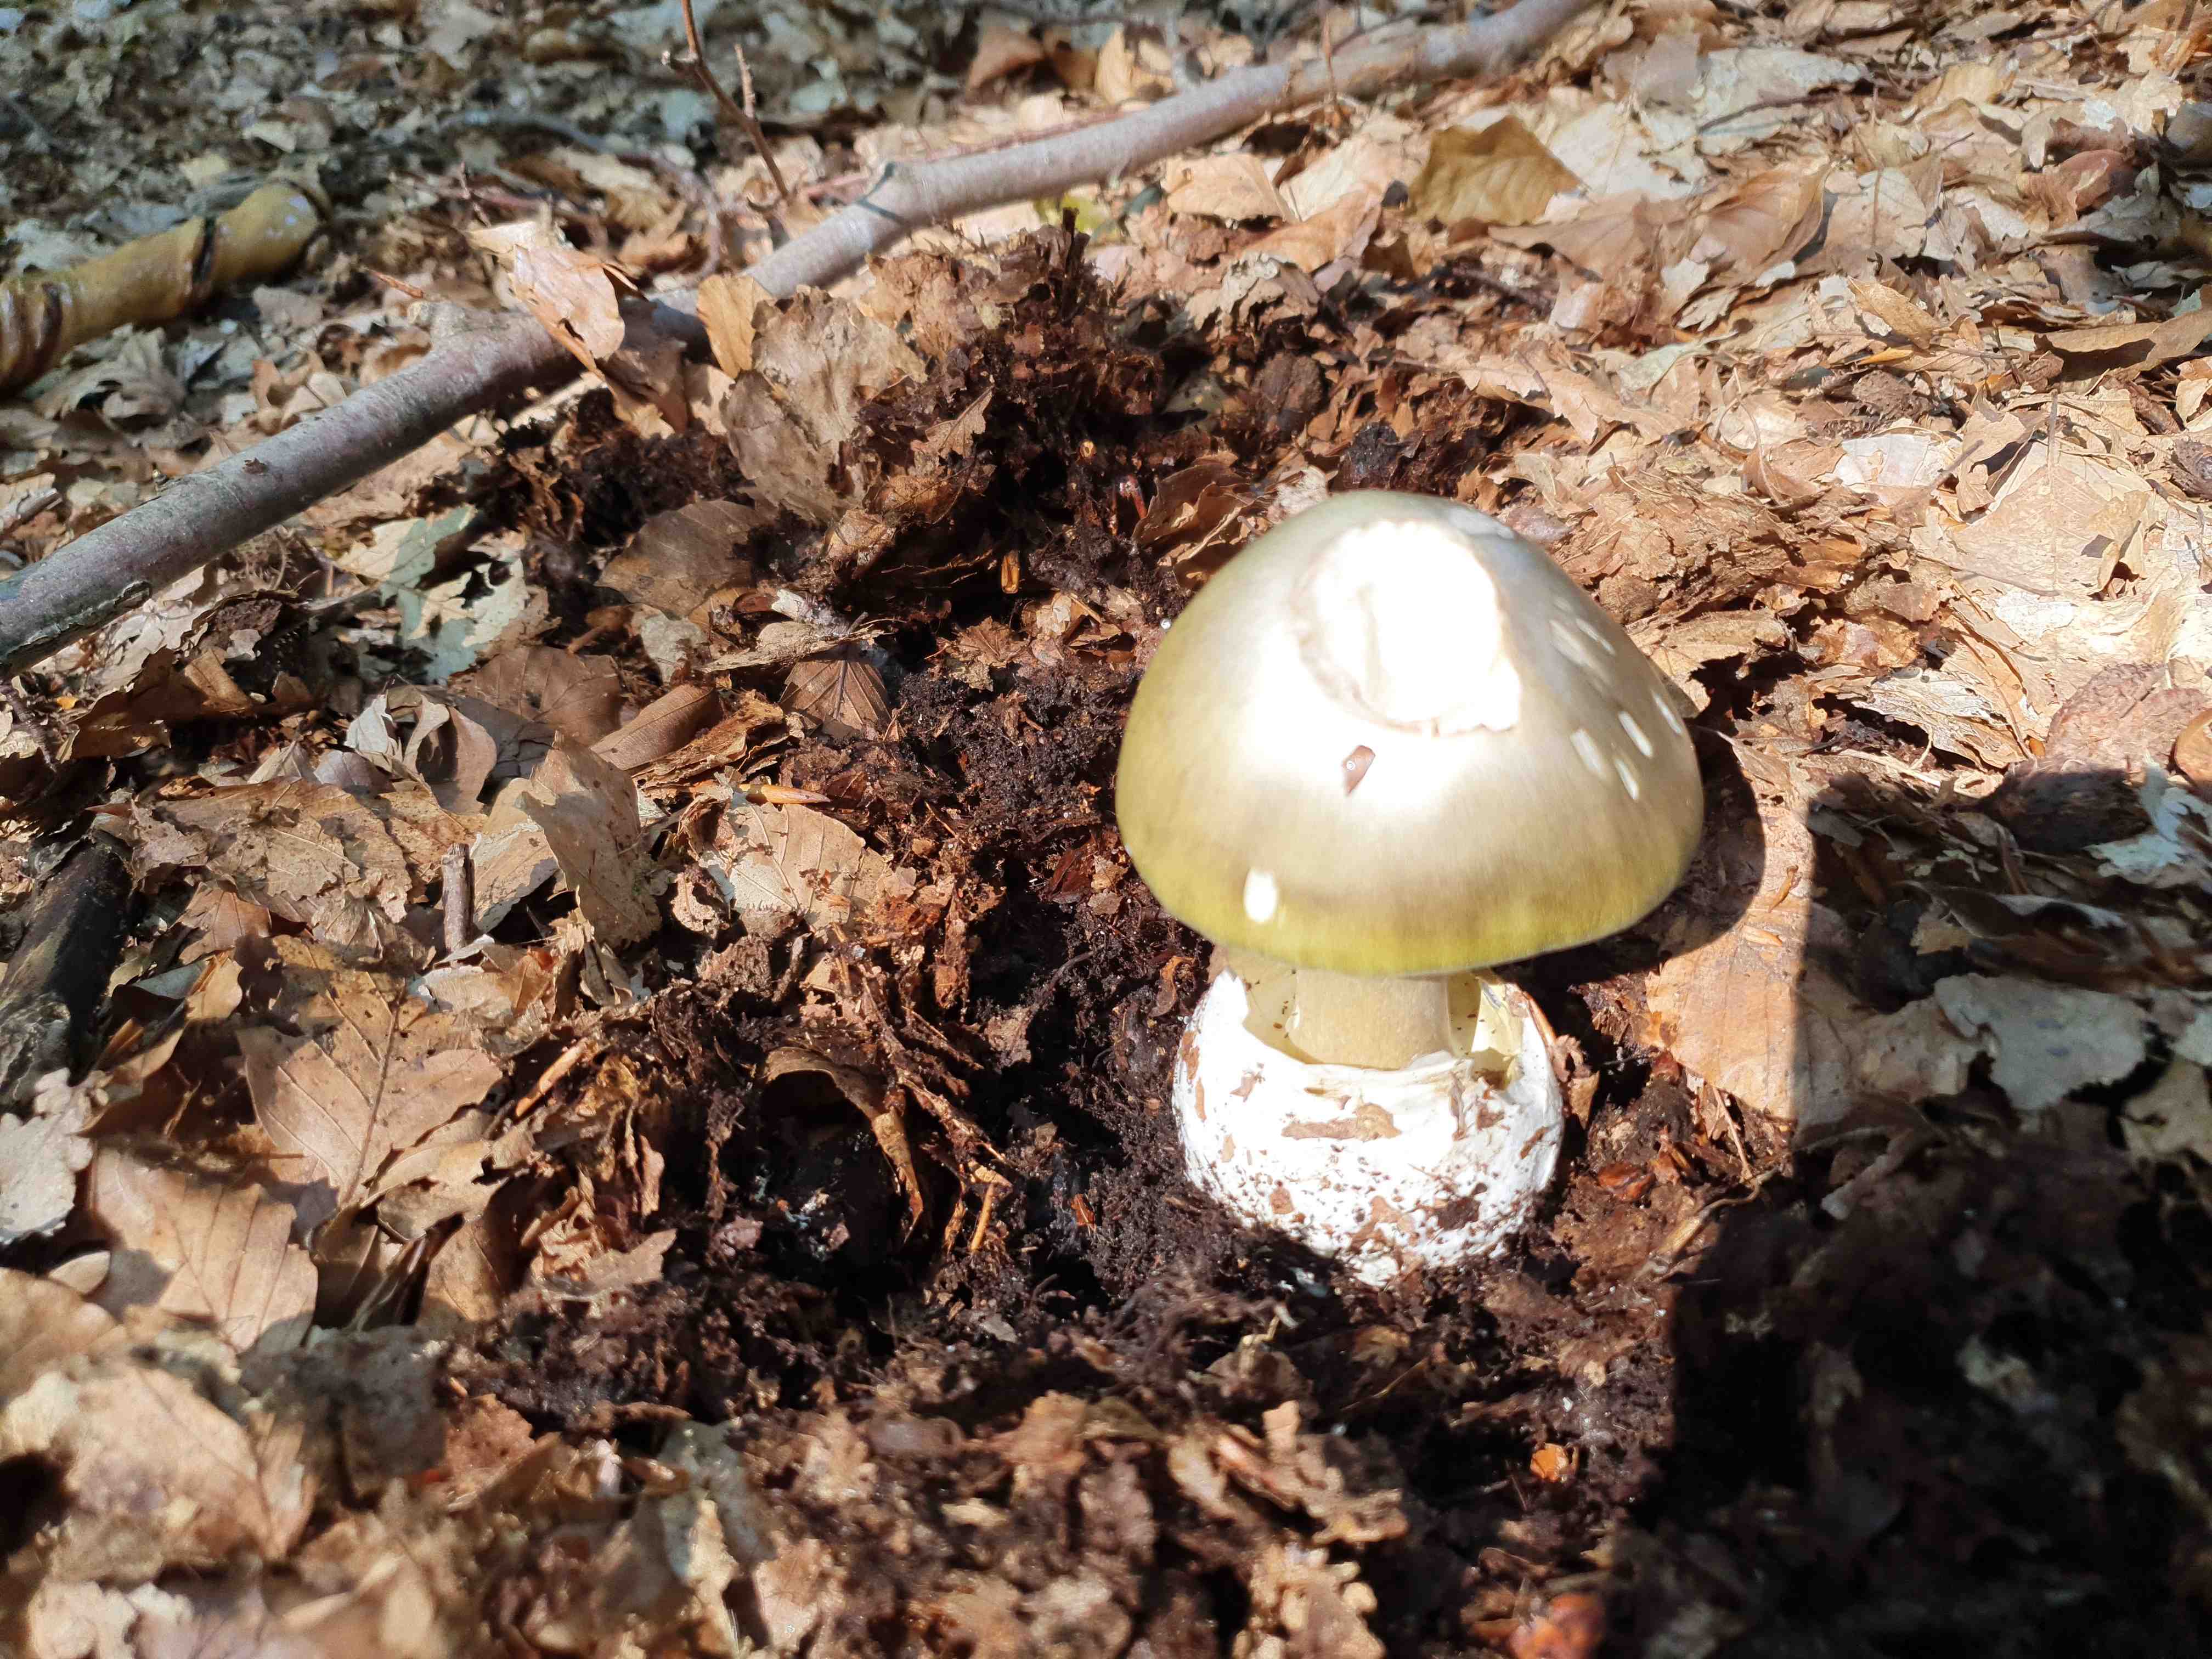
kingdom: Fungi
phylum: Basidiomycota
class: Agaricomycetes
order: Agaricales
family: Amanitaceae
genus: Amanita
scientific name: Amanita phalloides
